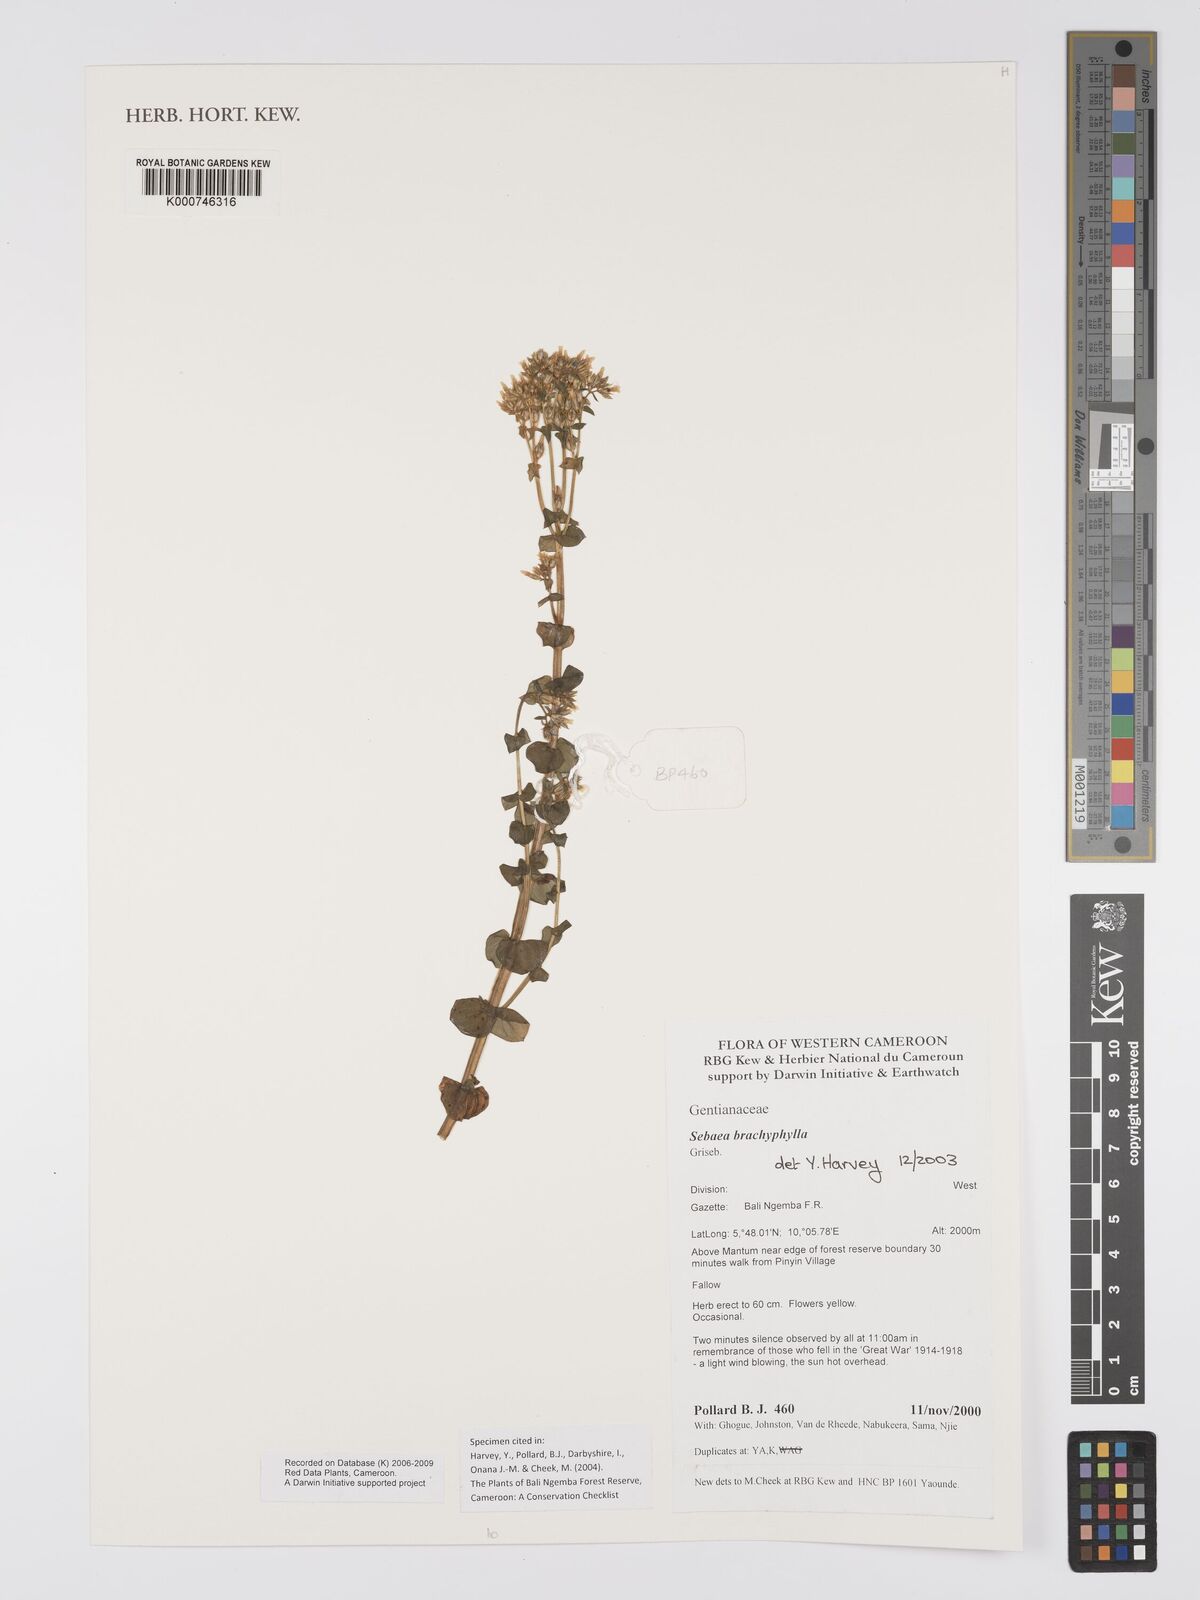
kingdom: Plantae
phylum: Tracheophyta
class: Magnoliopsida
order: Gentianales
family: Gentianaceae
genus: Sebaea
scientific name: Sebaea brachyphylla
